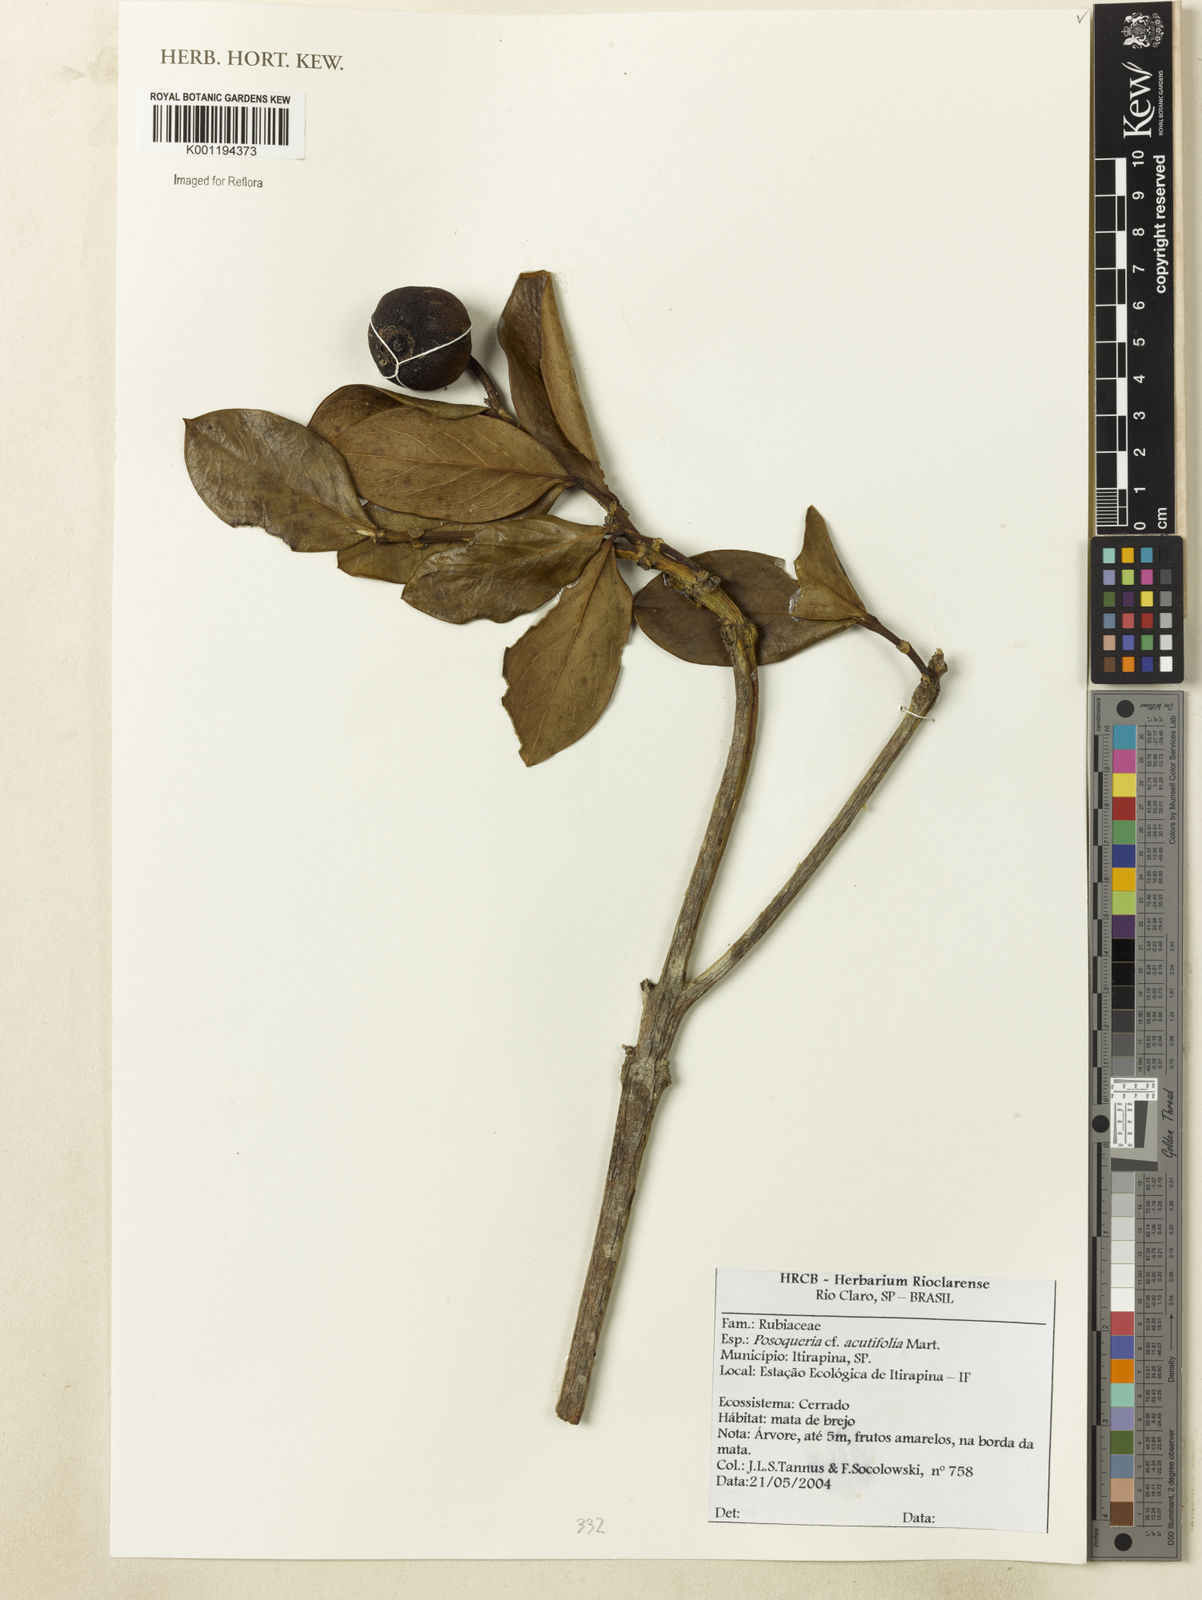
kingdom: Plantae
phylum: Tracheophyta
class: Magnoliopsida
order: Gentianales
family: Rubiaceae
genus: Posoqueria
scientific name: Posoqueria acutifolia
